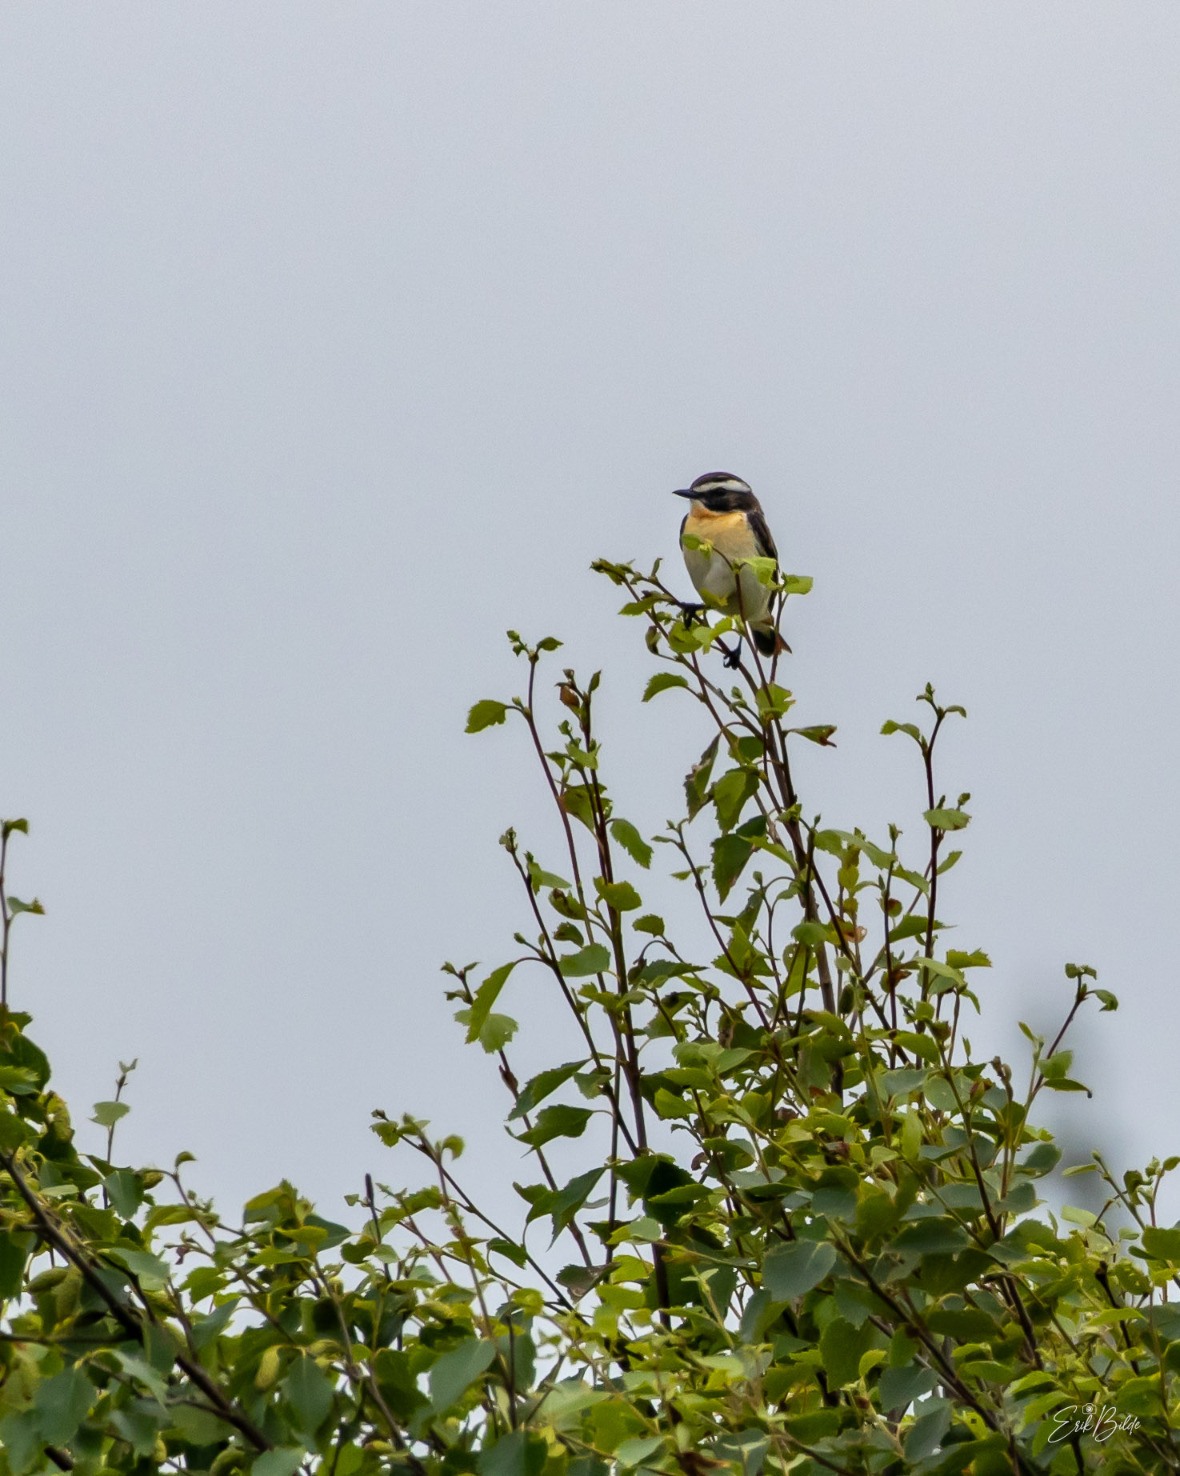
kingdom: Animalia
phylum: Chordata
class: Aves
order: Passeriformes
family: Muscicapidae
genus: Saxicola
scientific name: Saxicola rubetra
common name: Bynkefugl
